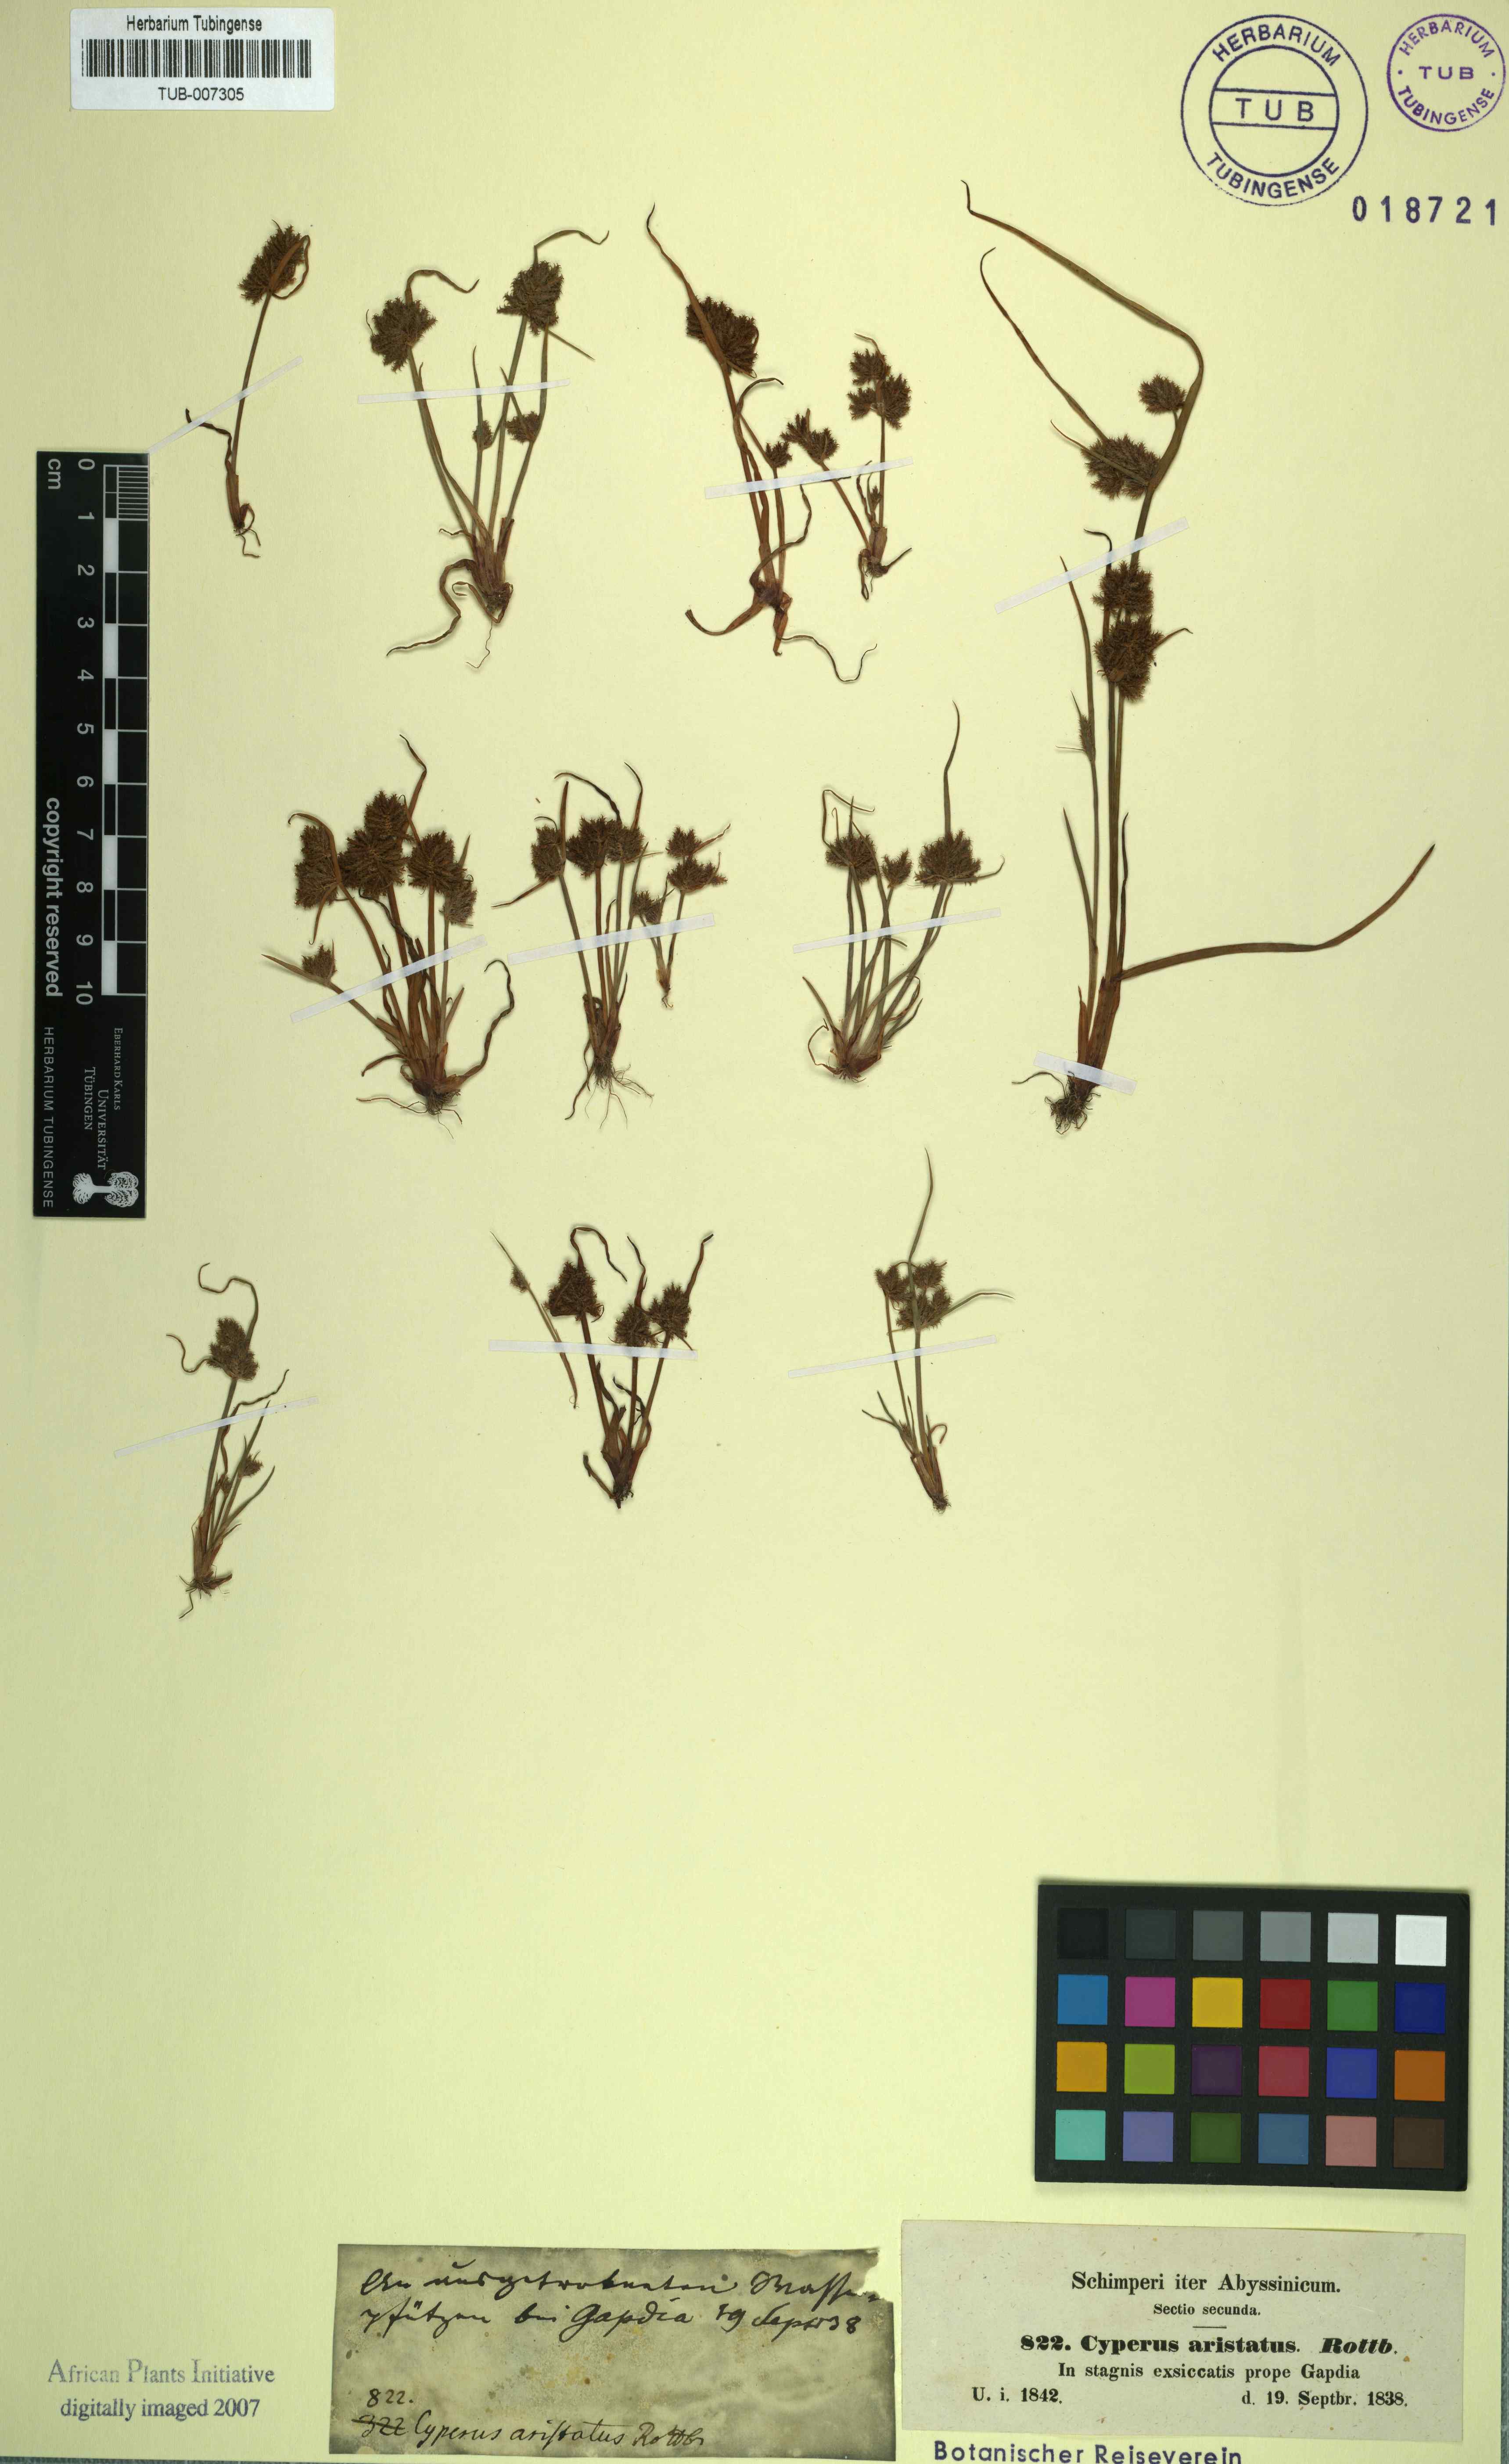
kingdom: Plantae
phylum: Tracheophyta
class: Liliopsida
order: Poales
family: Cyperaceae
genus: Cyperus
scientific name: Cyperus squarrosus
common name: Awned cyperus
